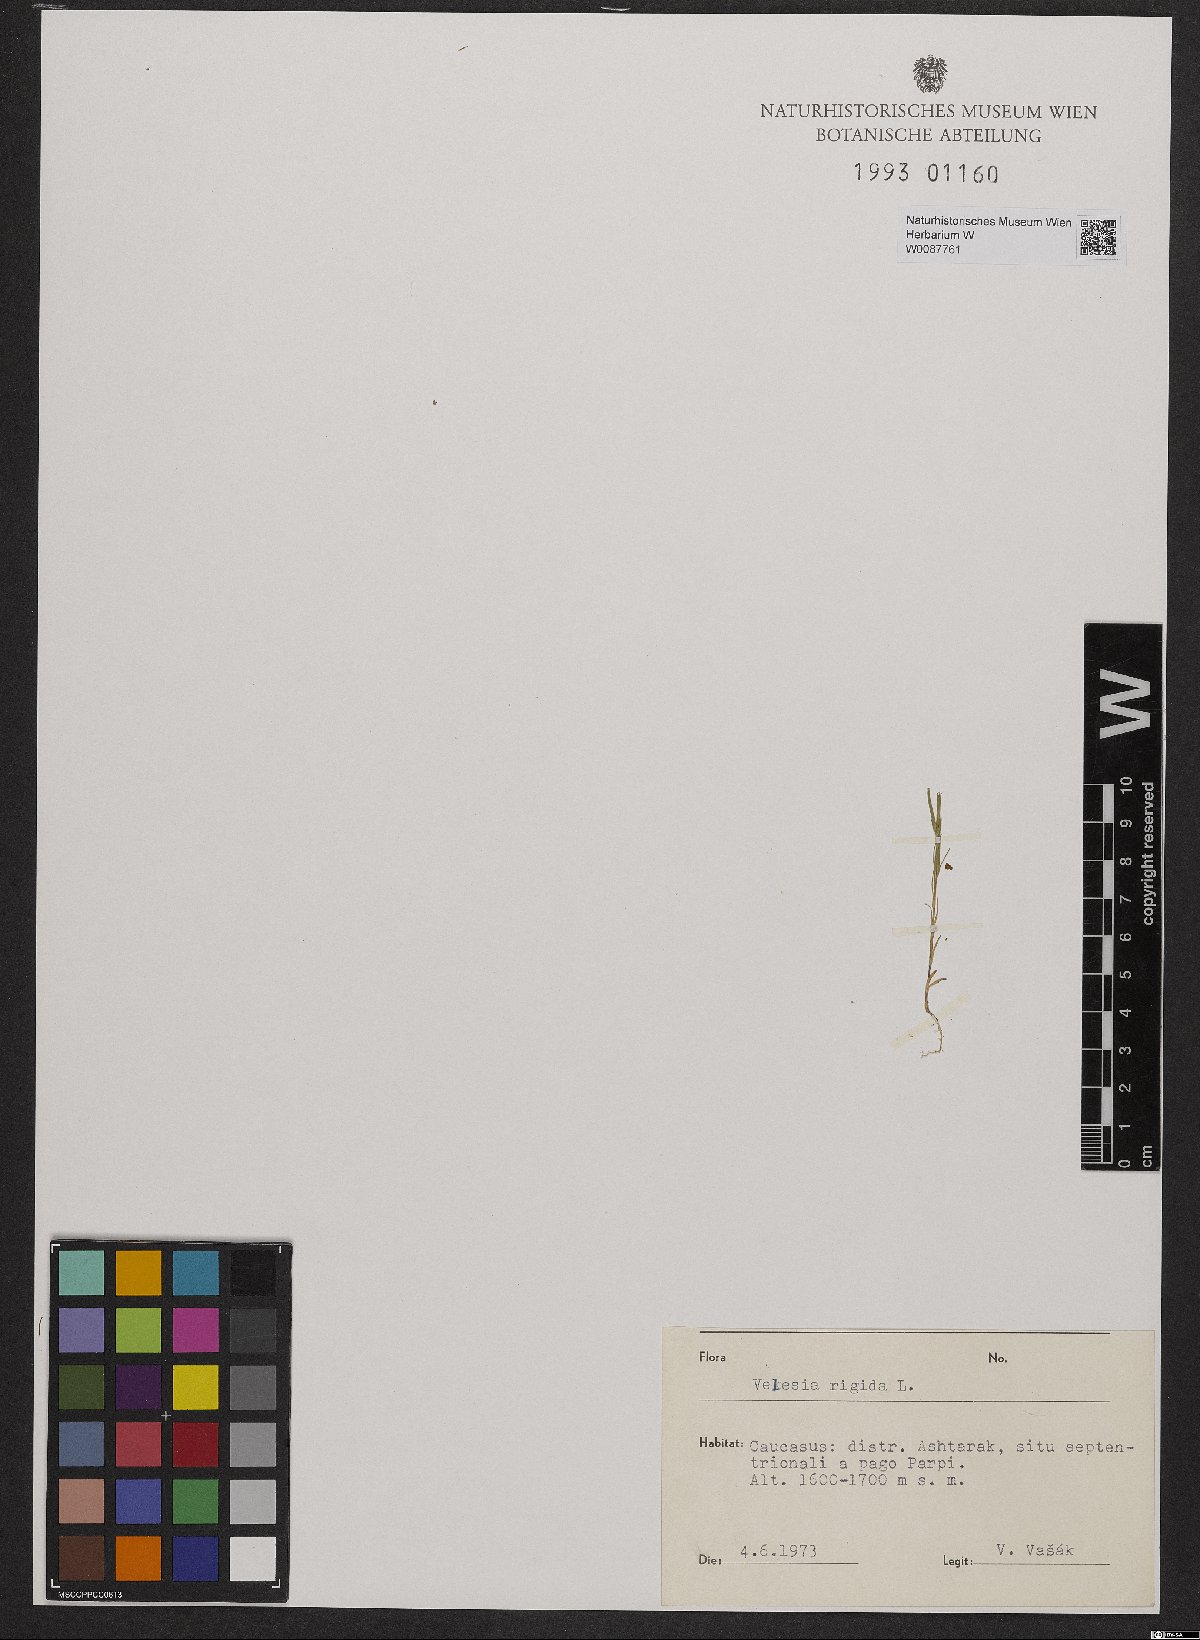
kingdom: Plantae
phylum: Tracheophyta
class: Magnoliopsida
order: Caryophyllales
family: Caryophyllaceae
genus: Dianthus
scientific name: Dianthus nudiflorus
